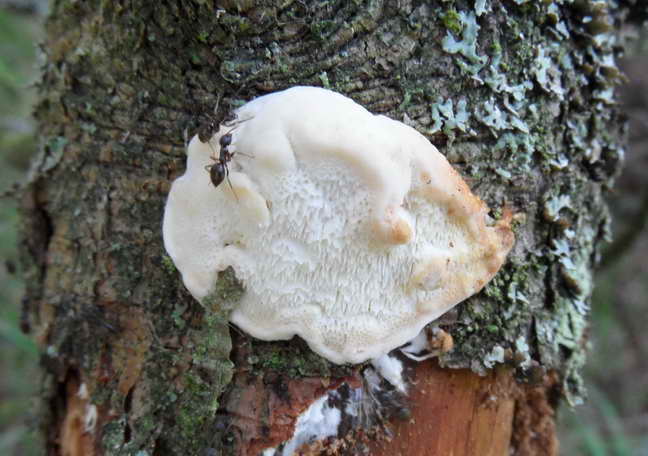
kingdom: Fungi
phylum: Basidiomycota
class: Agaricomycetes
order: Polyporales
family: Fomitopsidaceae
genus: Fomitopsis
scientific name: Fomitopsis
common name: fyrre-skiveporesvamp
